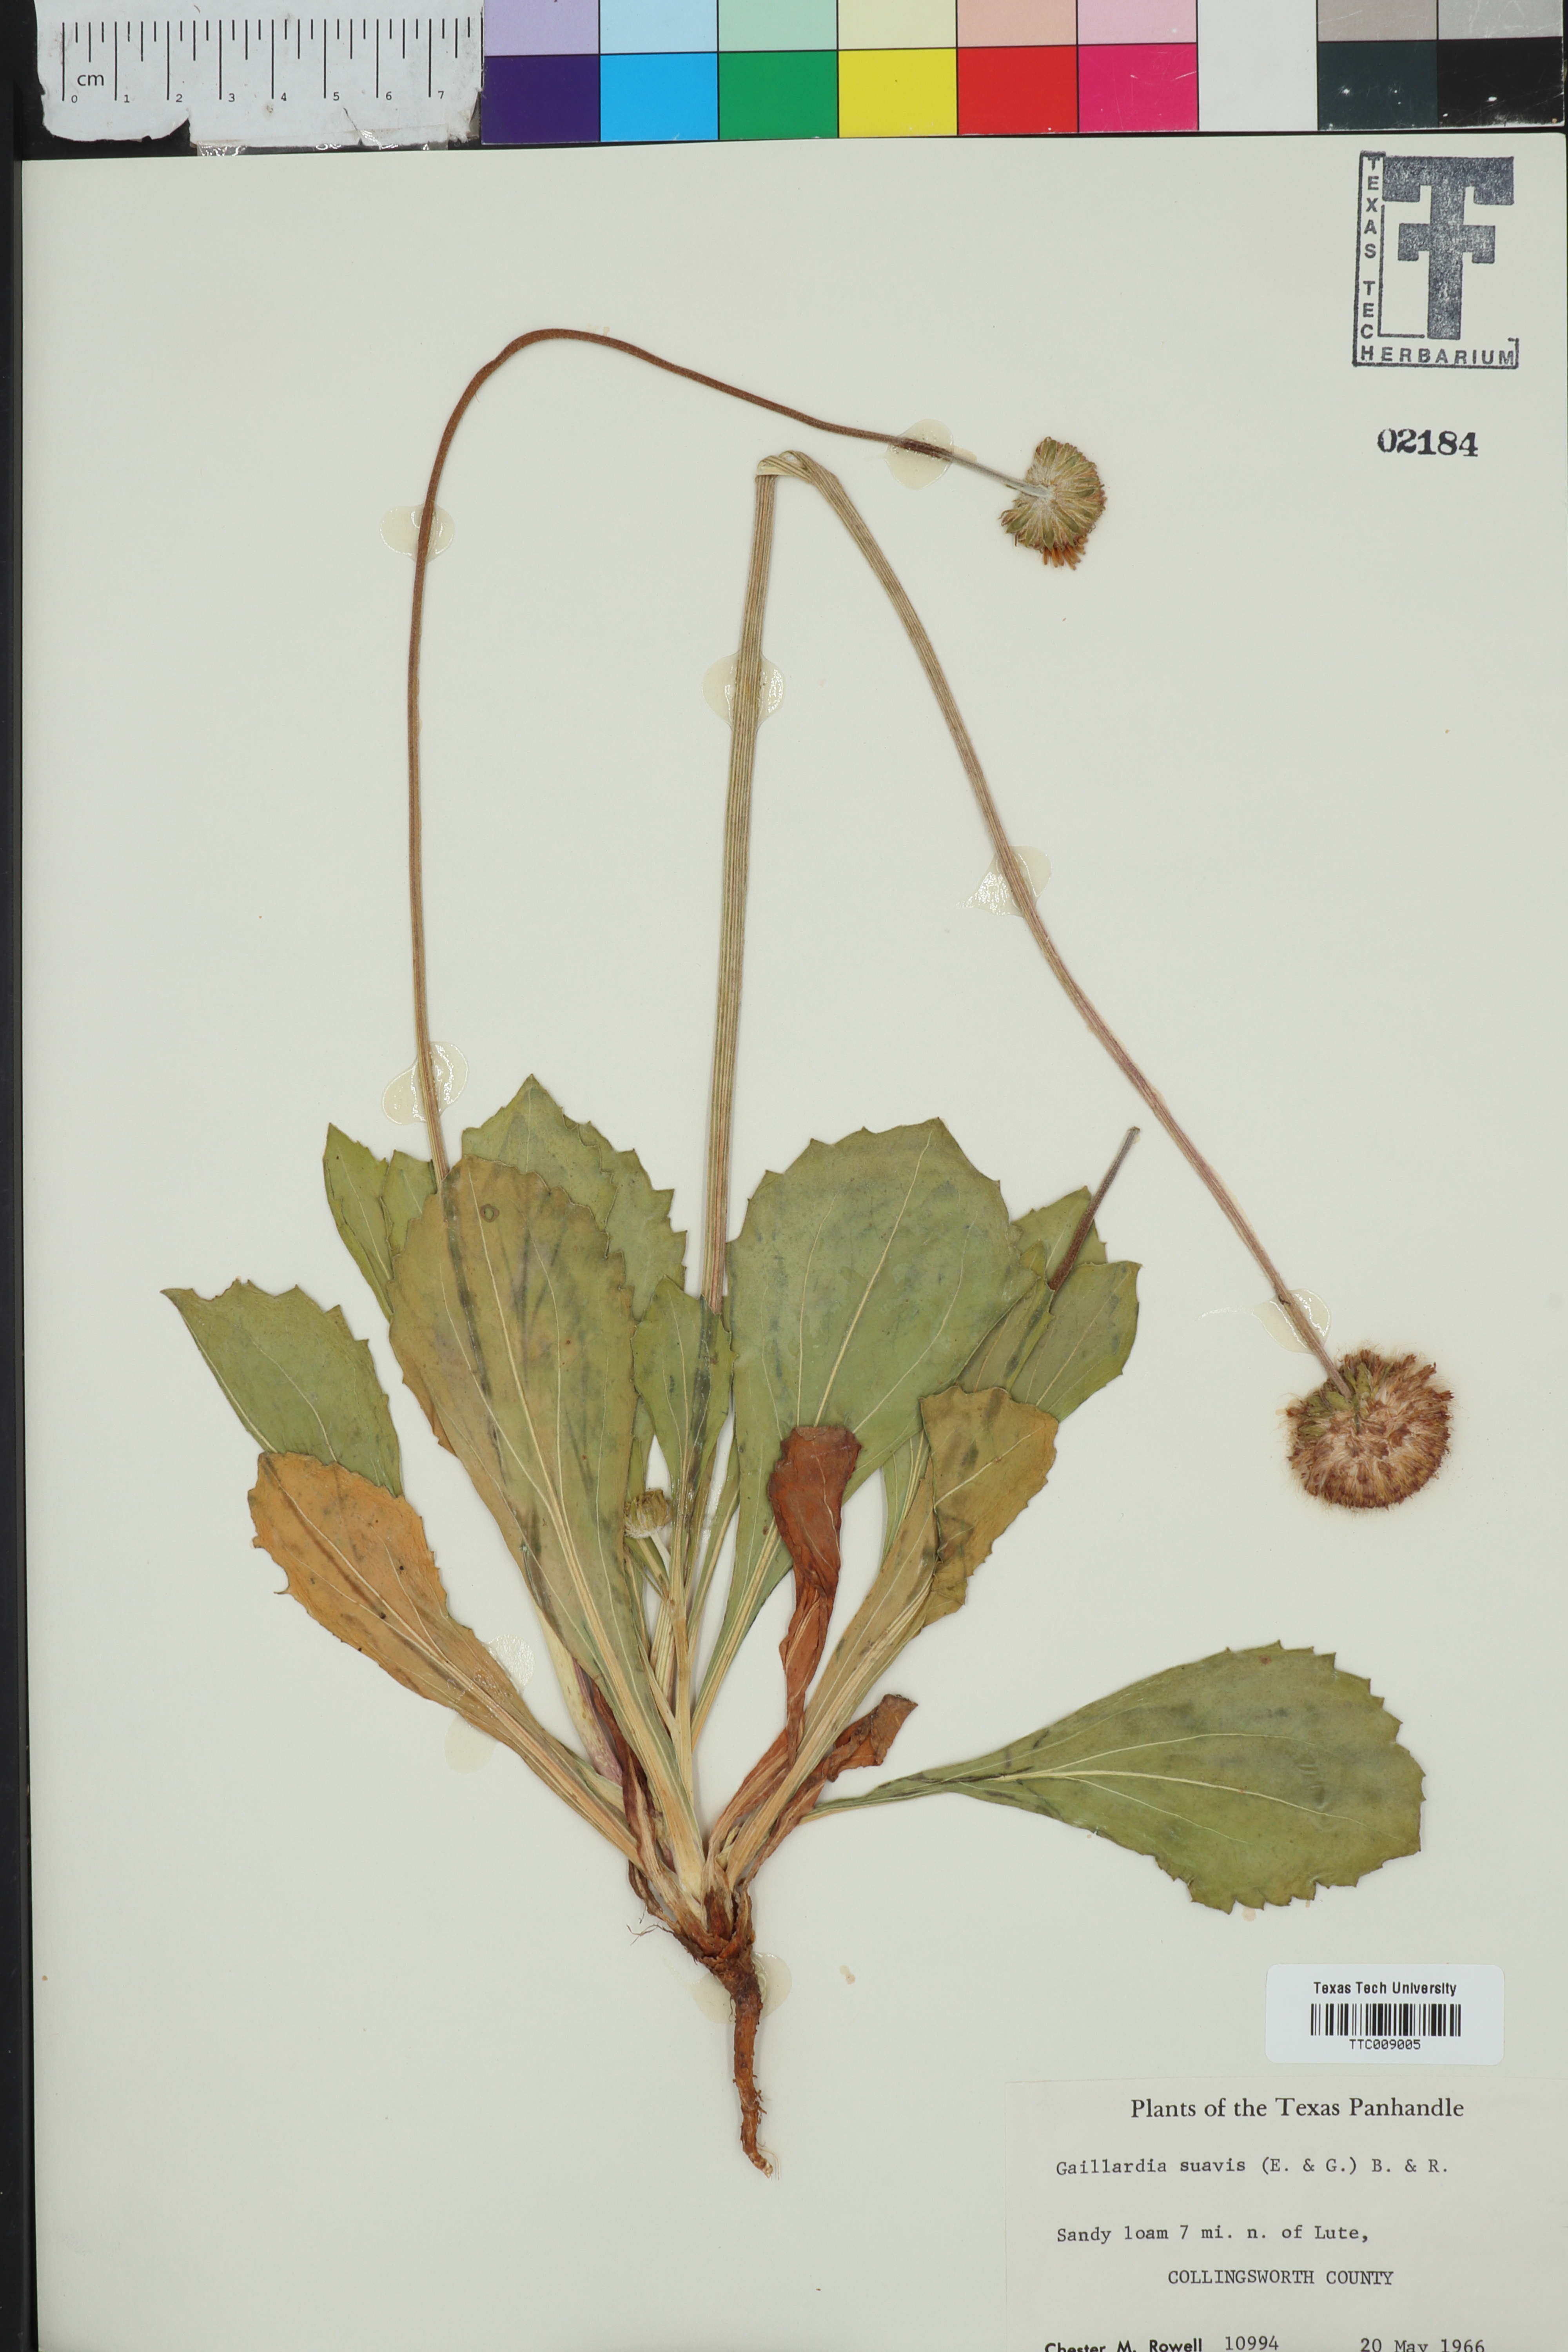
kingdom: Plantae
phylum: Tracheophyta
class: Magnoliopsida
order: Asterales
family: Asteraceae
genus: Gaillardia
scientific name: Gaillardia suavis
